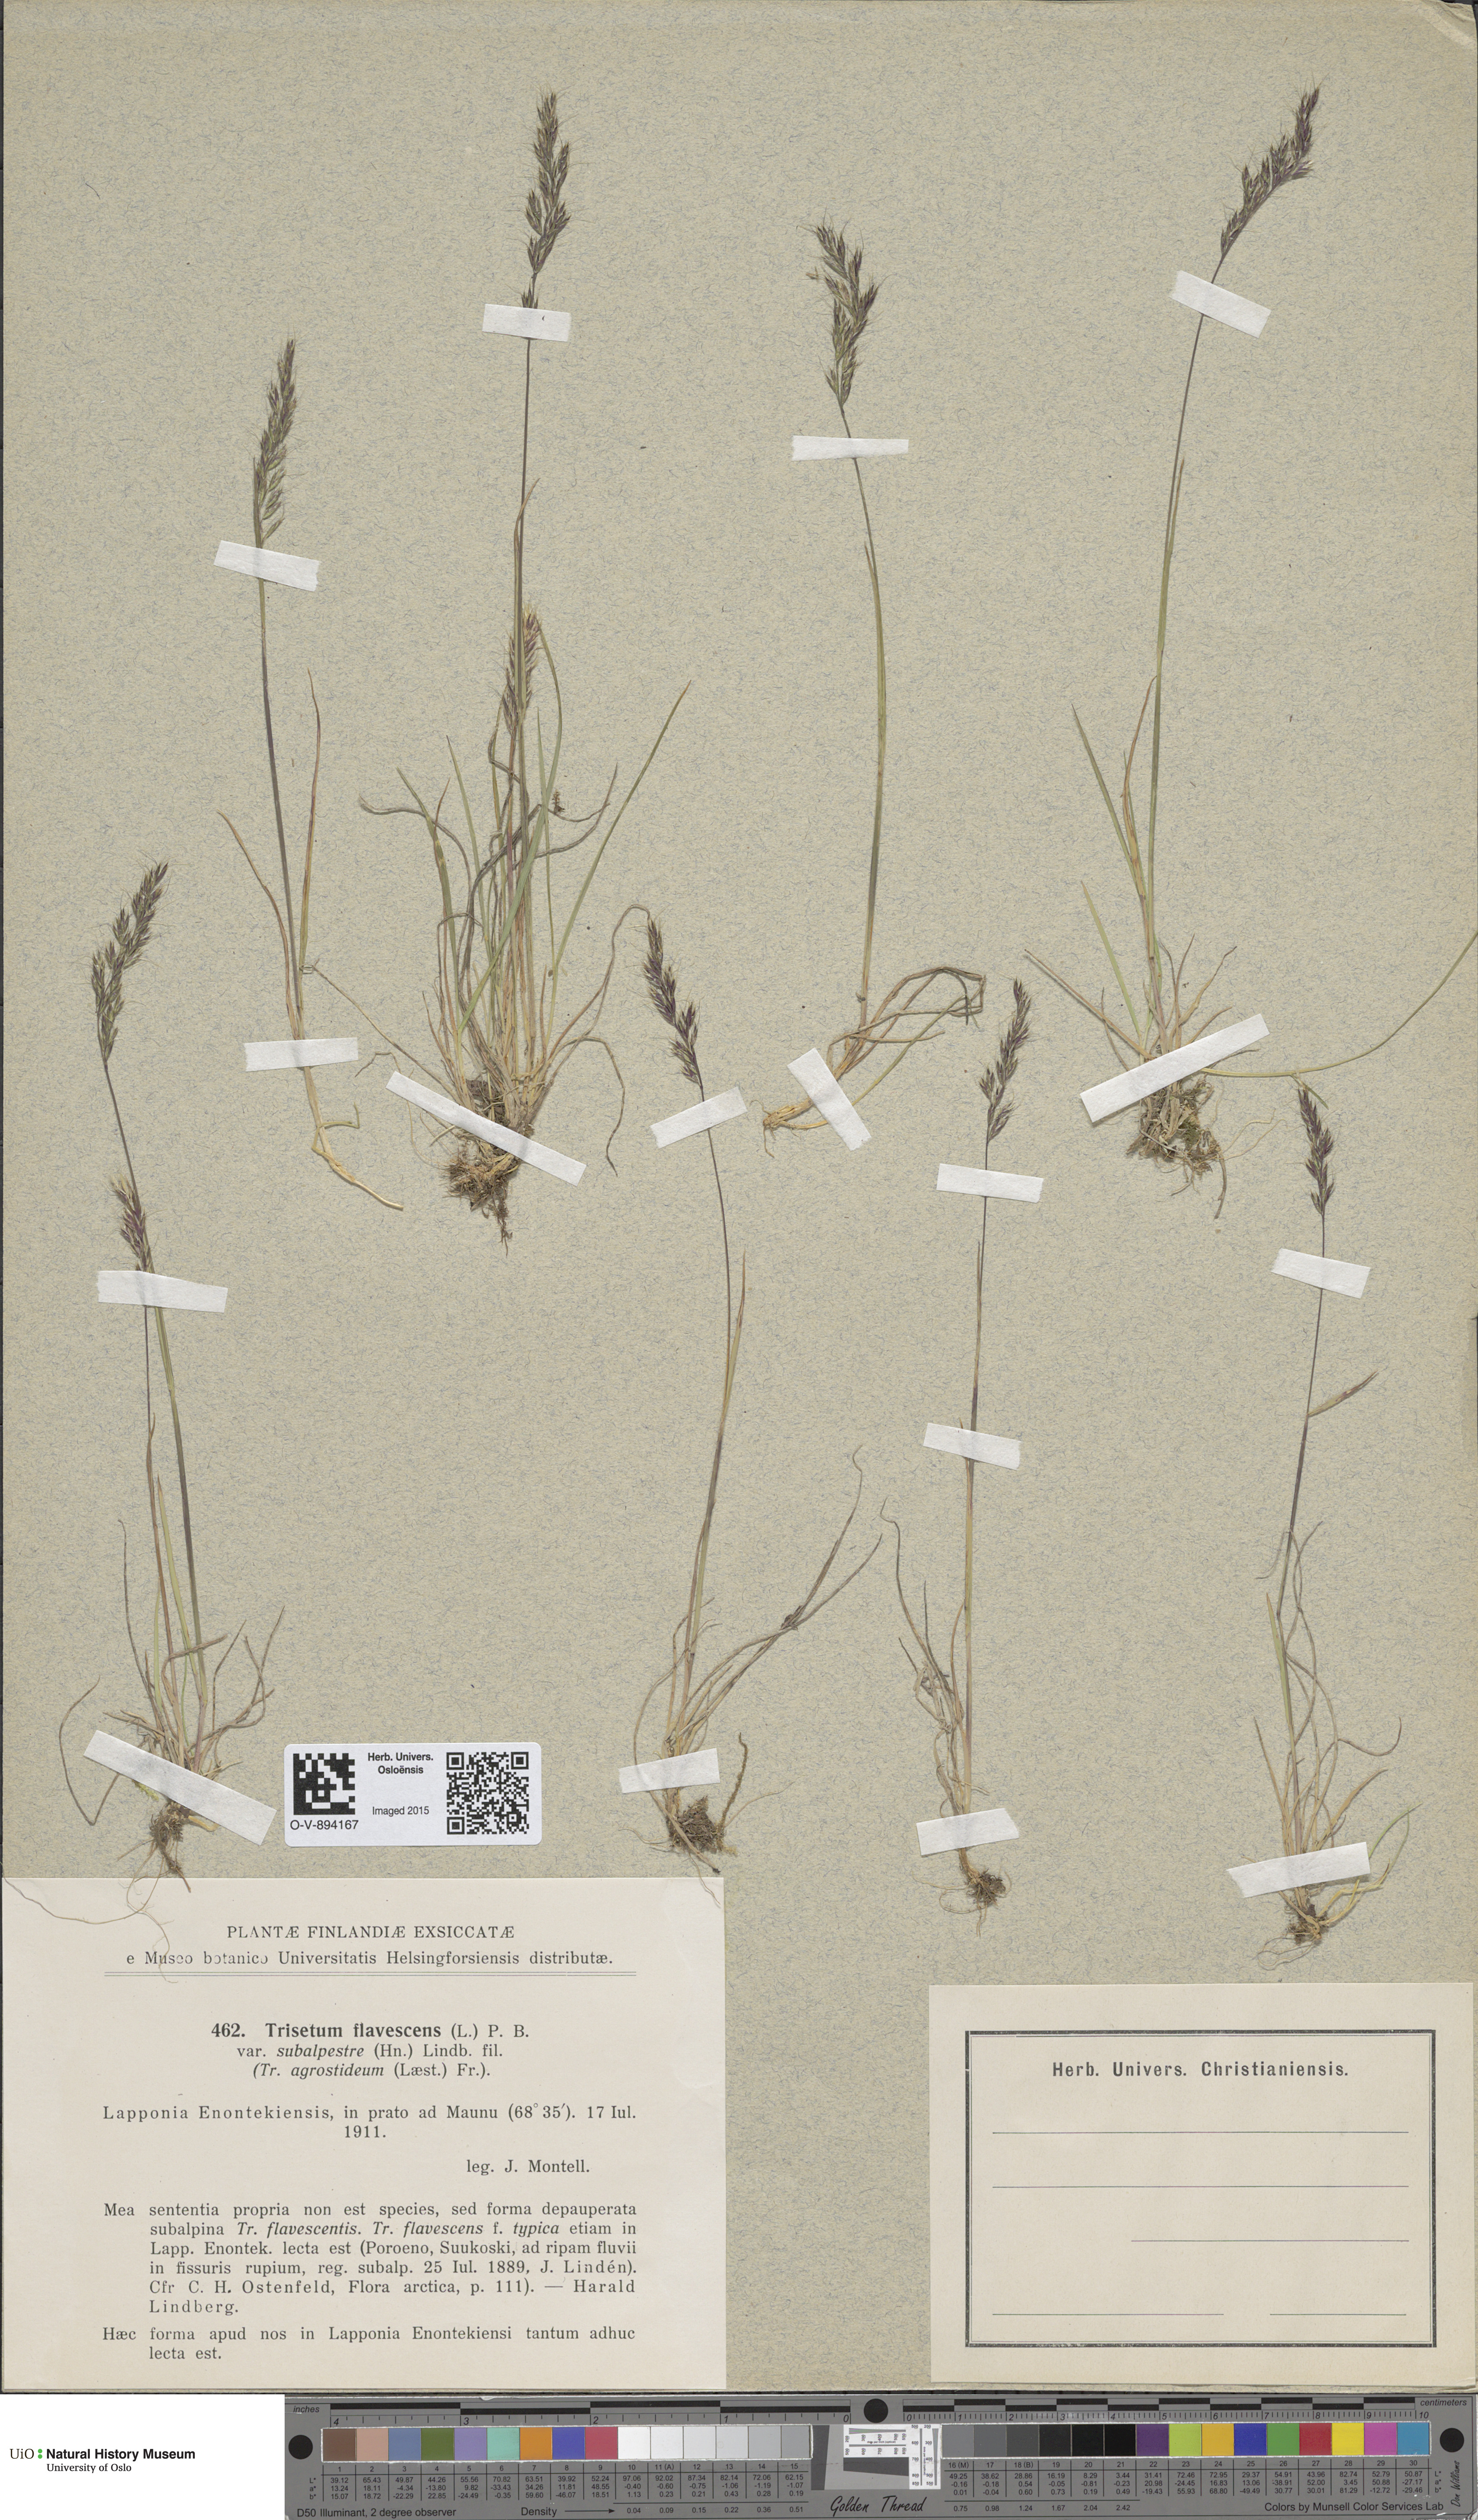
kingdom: Plantae
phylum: Tracheophyta
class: Liliopsida
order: Poales
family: Poaceae
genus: Trisetum
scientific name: Trisetum flavescens
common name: Yellow oat-grass
